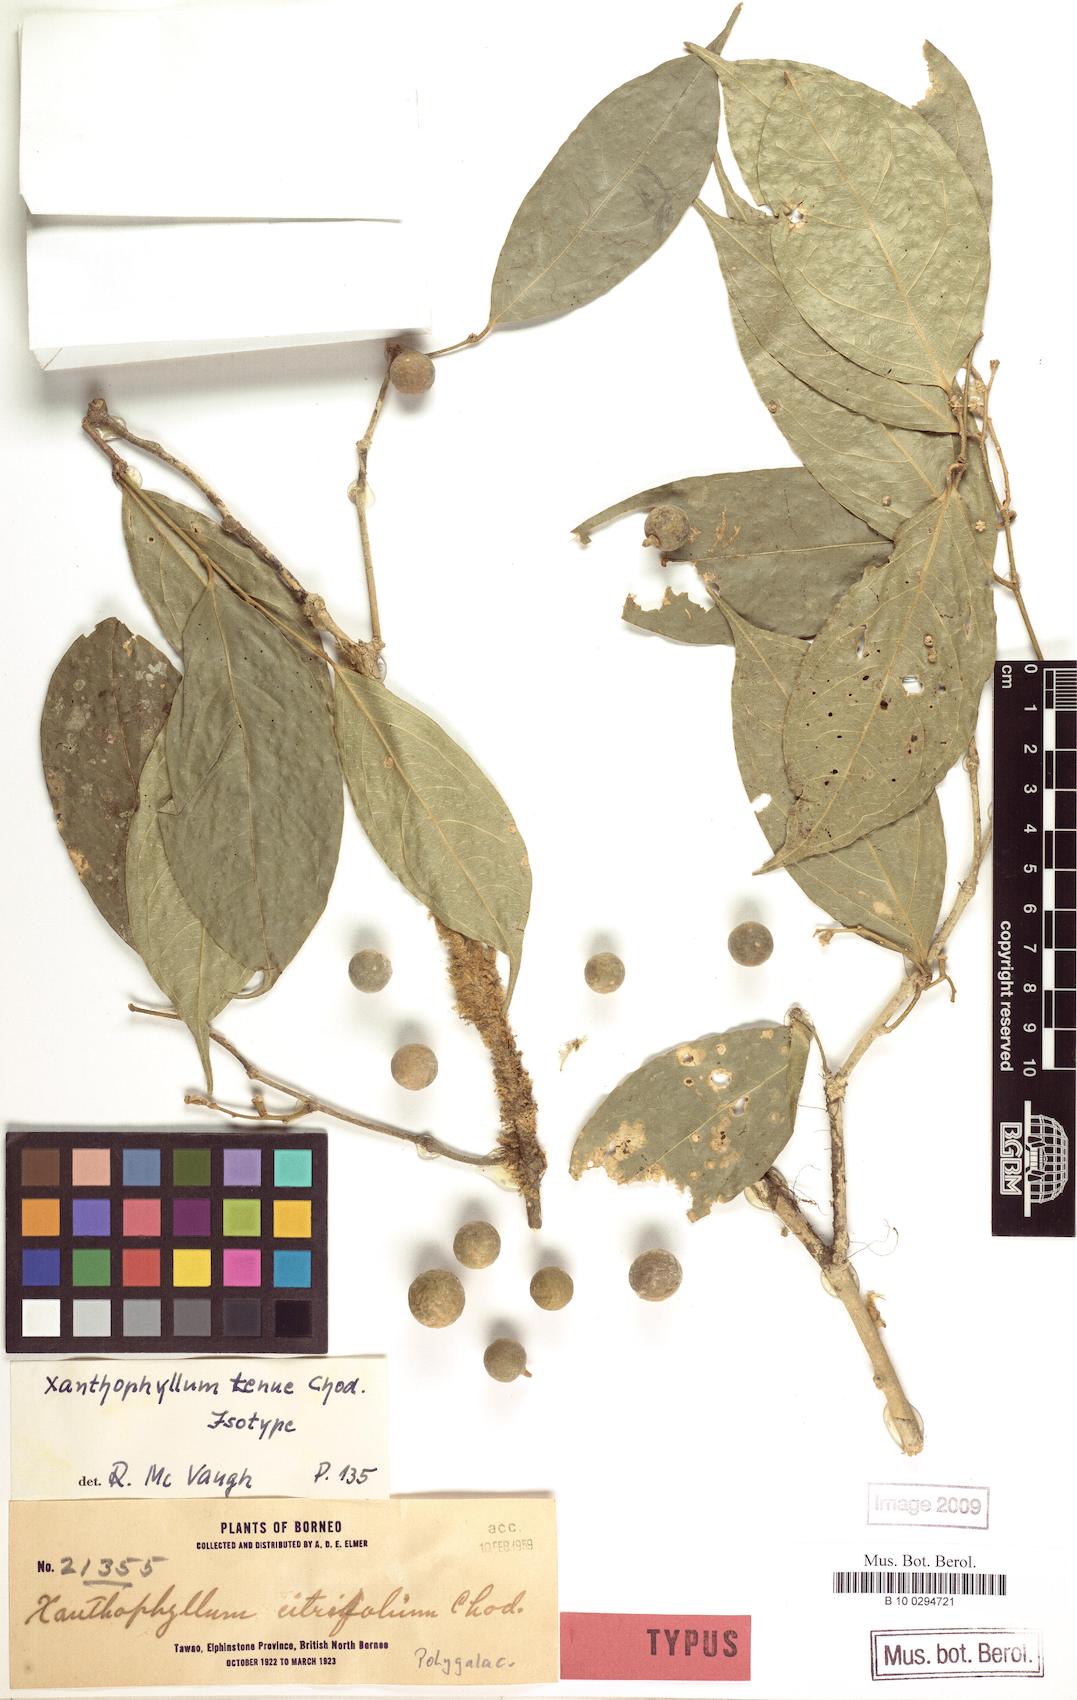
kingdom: Plantae
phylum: Tracheophyta
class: Magnoliopsida
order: Fabales
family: Polygalaceae
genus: Xanthophyllum
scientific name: Xanthophyllum tenue
